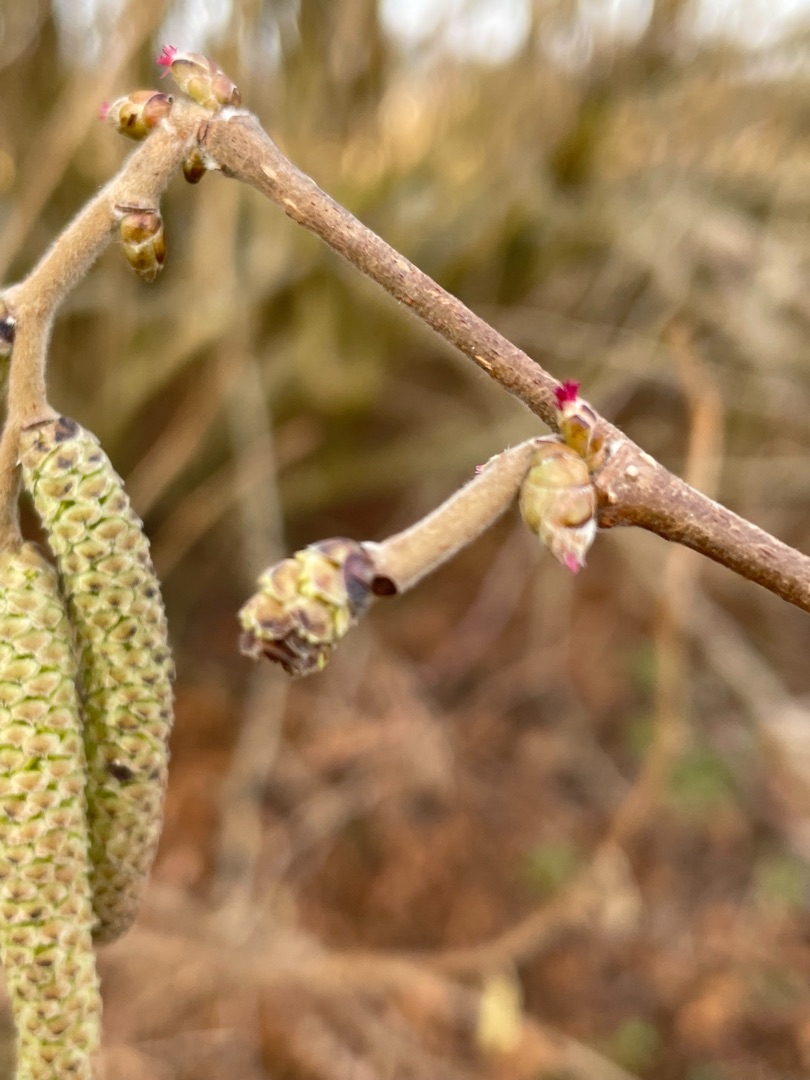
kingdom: Plantae
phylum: Tracheophyta
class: Magnoliopsida
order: Fagales
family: Betulaceae
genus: Corylus
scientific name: Corylus avellana
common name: Hassel
